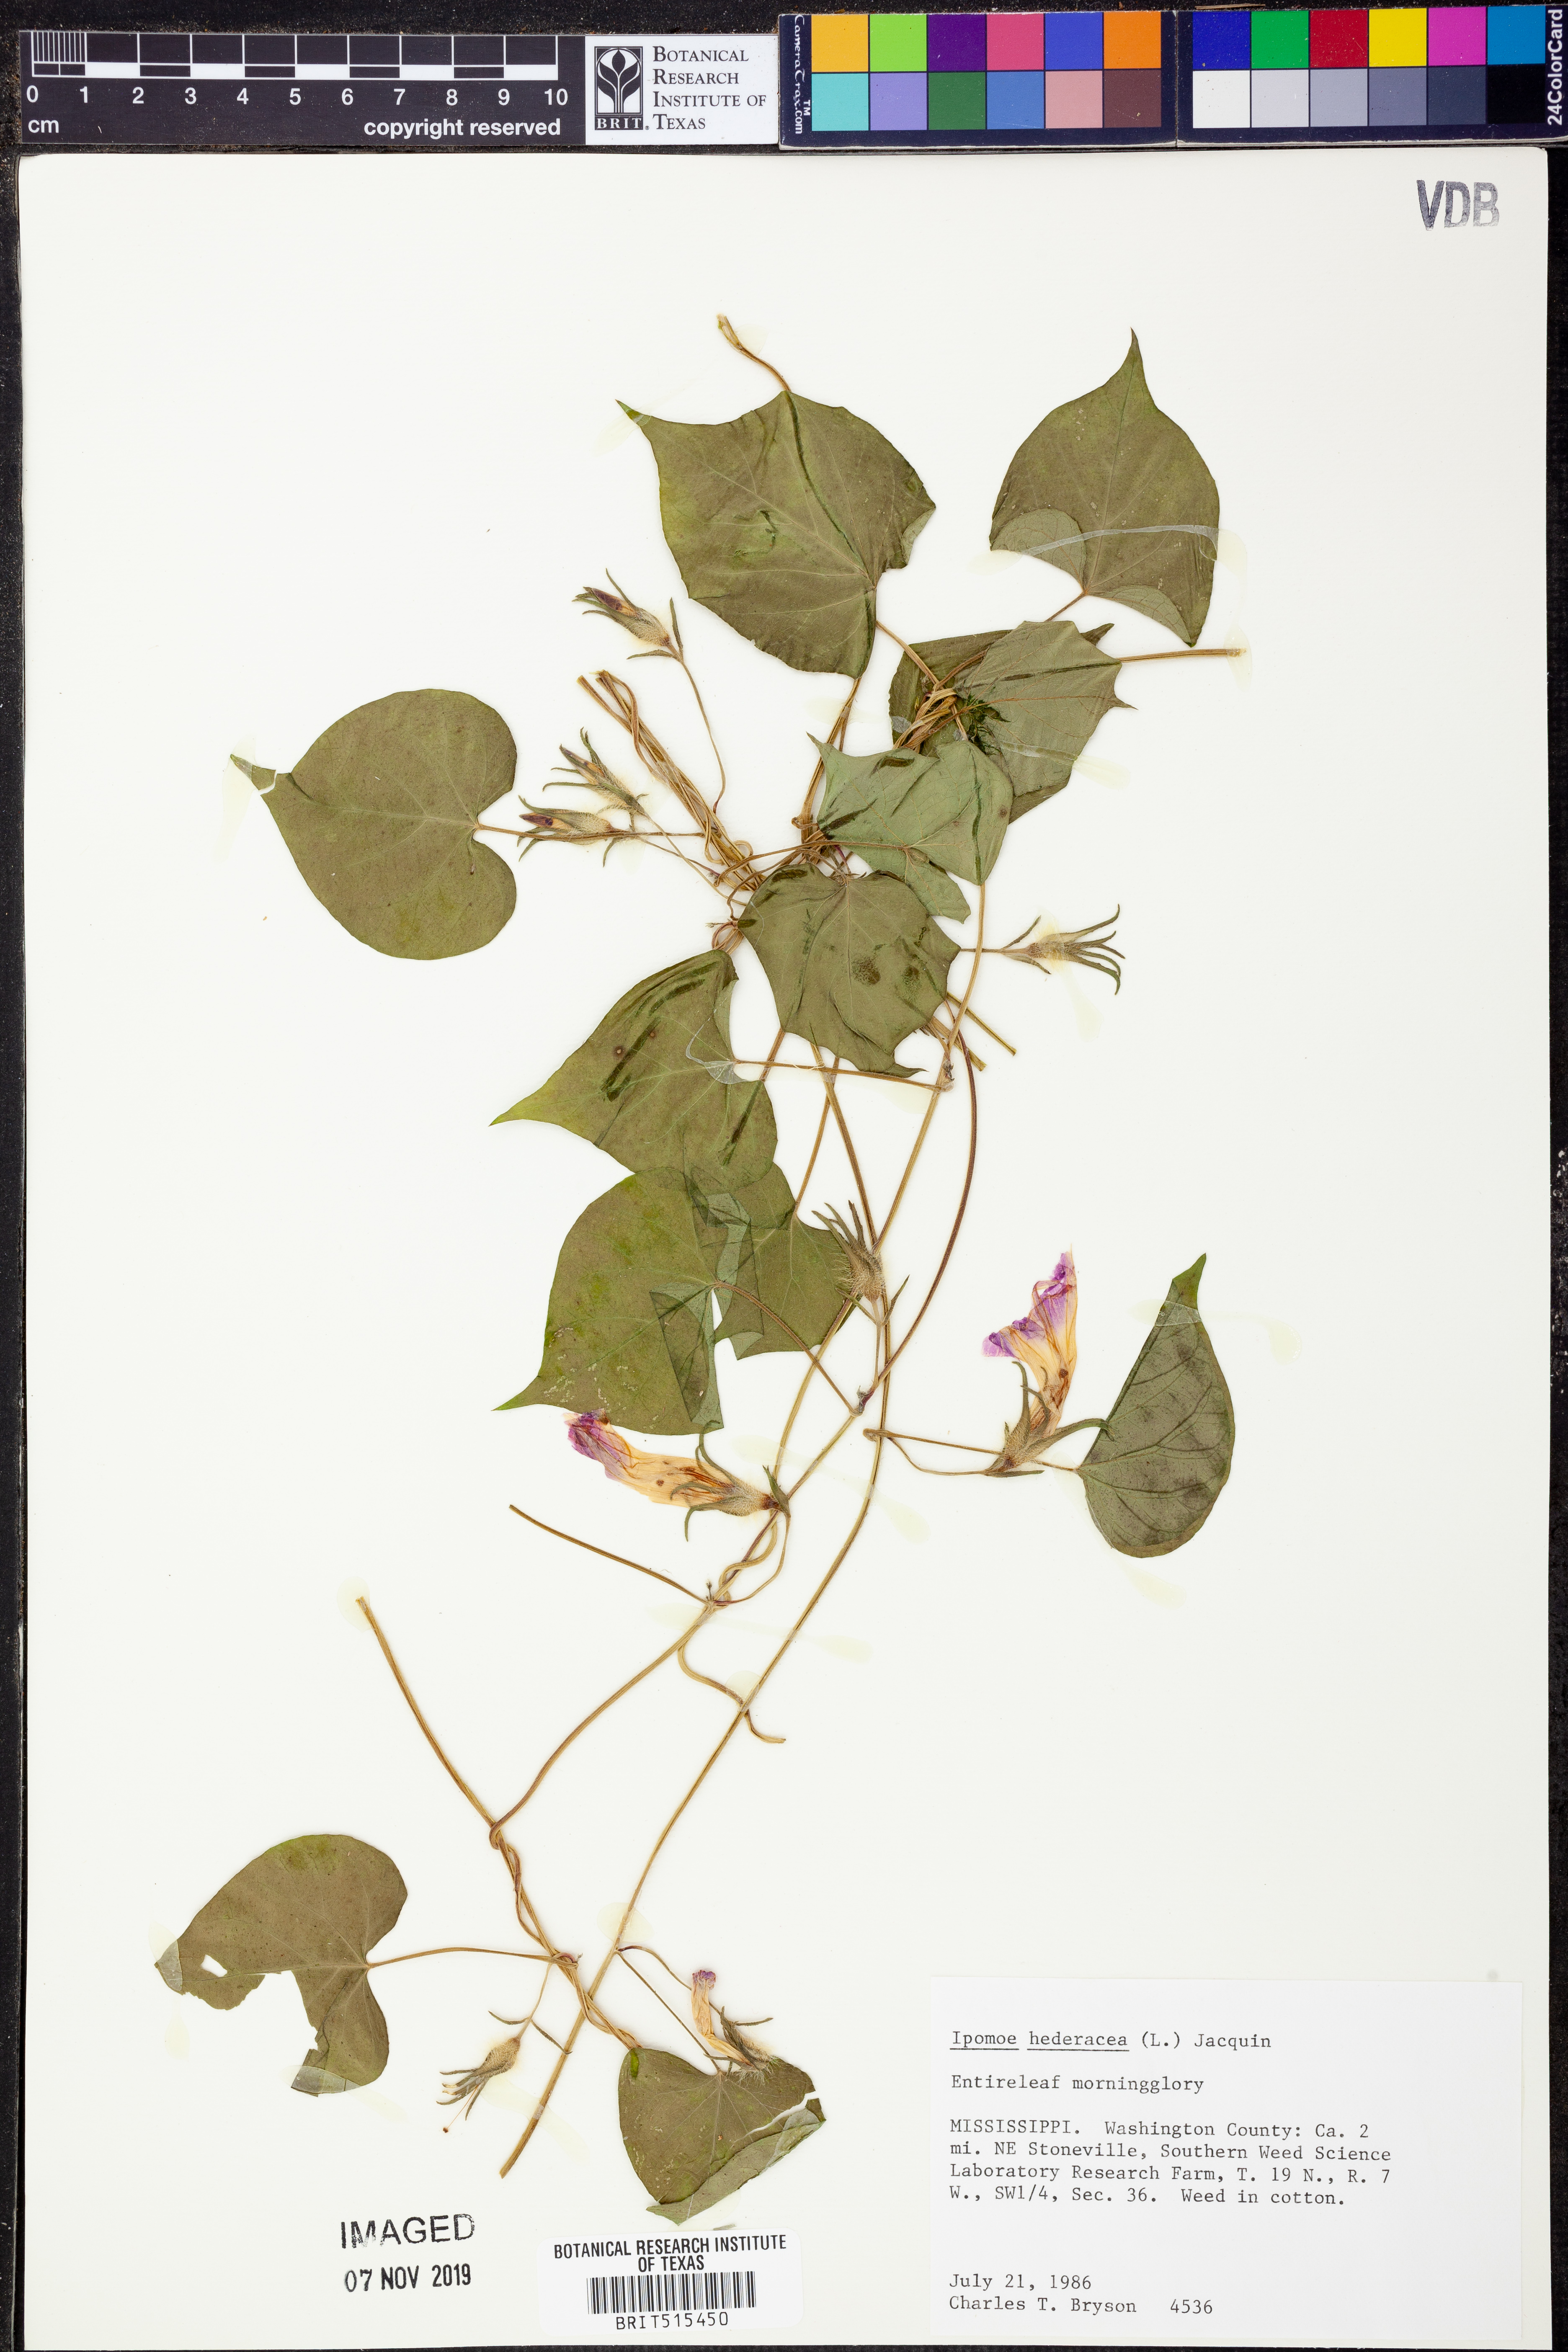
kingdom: Plantae
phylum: Tracheophyta
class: Magnoliopsida
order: Solanales
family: Convolvulaceae
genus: Ipomoea
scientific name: Ipomoea hederacea
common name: Ivy-leaved morning-glory
